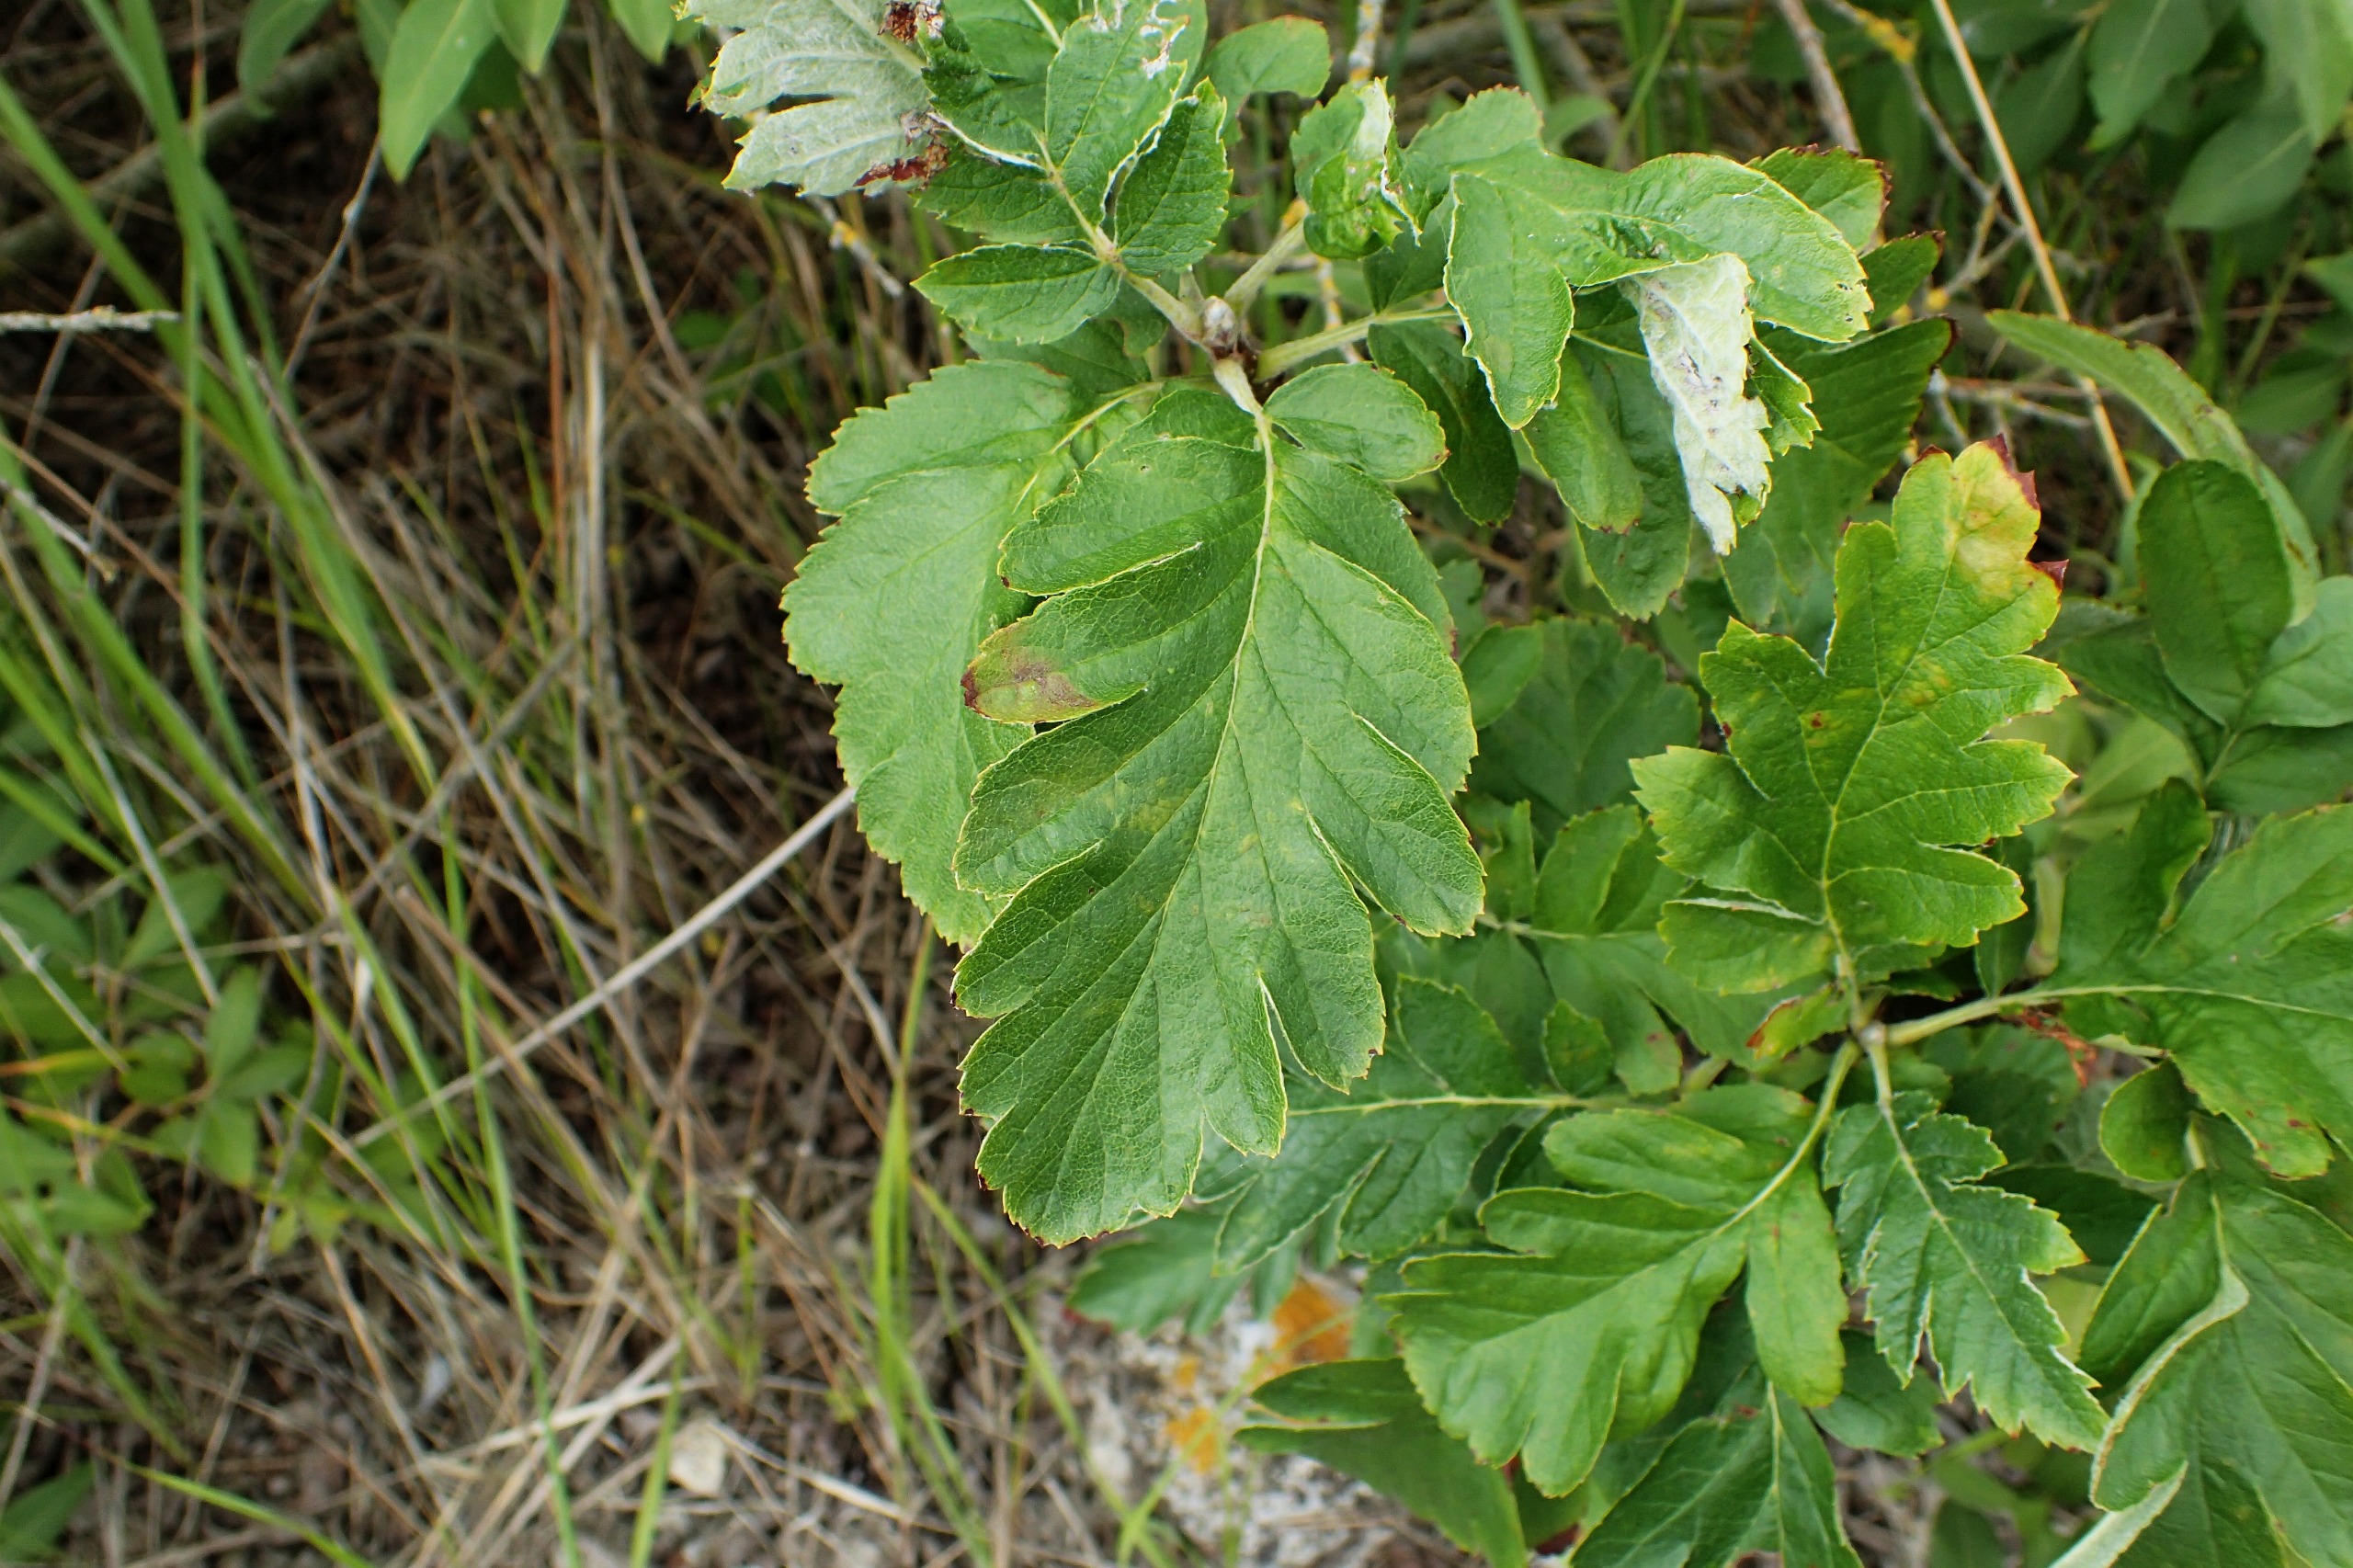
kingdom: Plantae
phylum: Tracheophyta
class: Magnoliopsida
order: Rosales
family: Rosaceae
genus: Hedlundia
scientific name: Hedlundia hybrida
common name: Finsk røn
